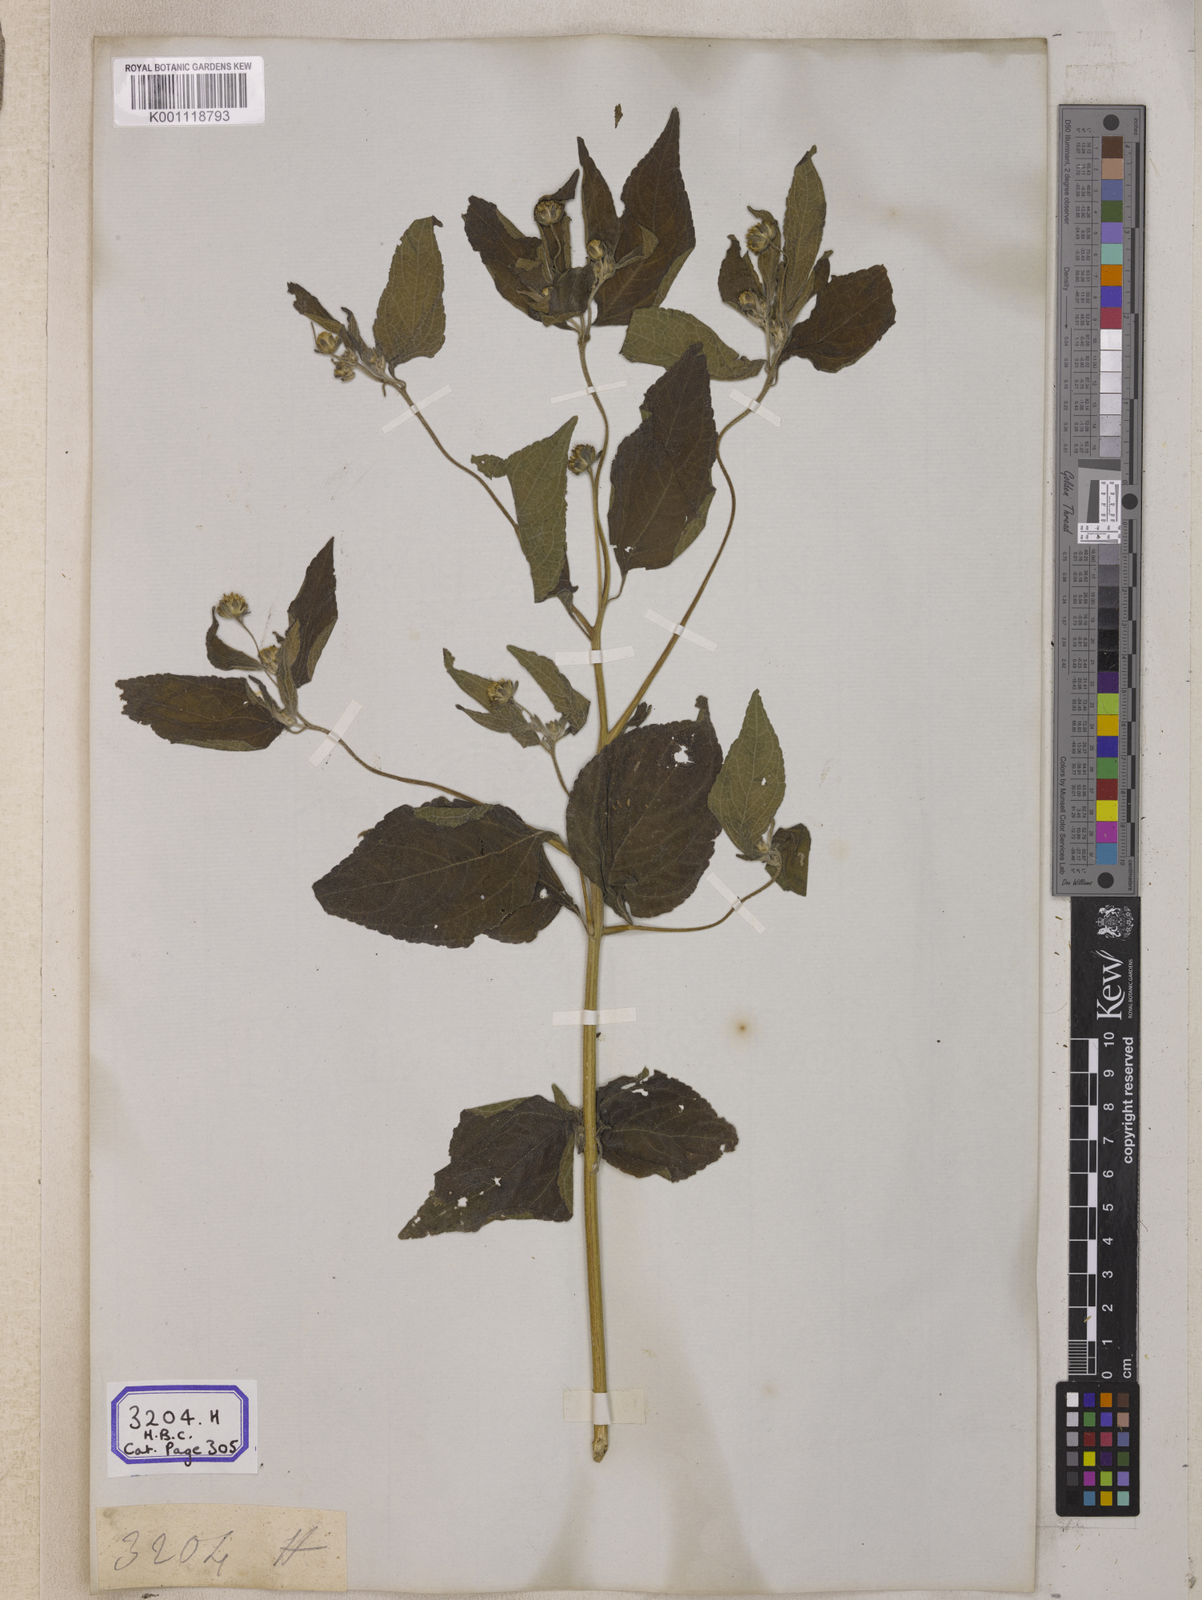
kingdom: Plantae
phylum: Tracheophyta
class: Magnoliopsida
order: Asterales
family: Asteraceae
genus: Blainvillea
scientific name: Blainvillea acmella
